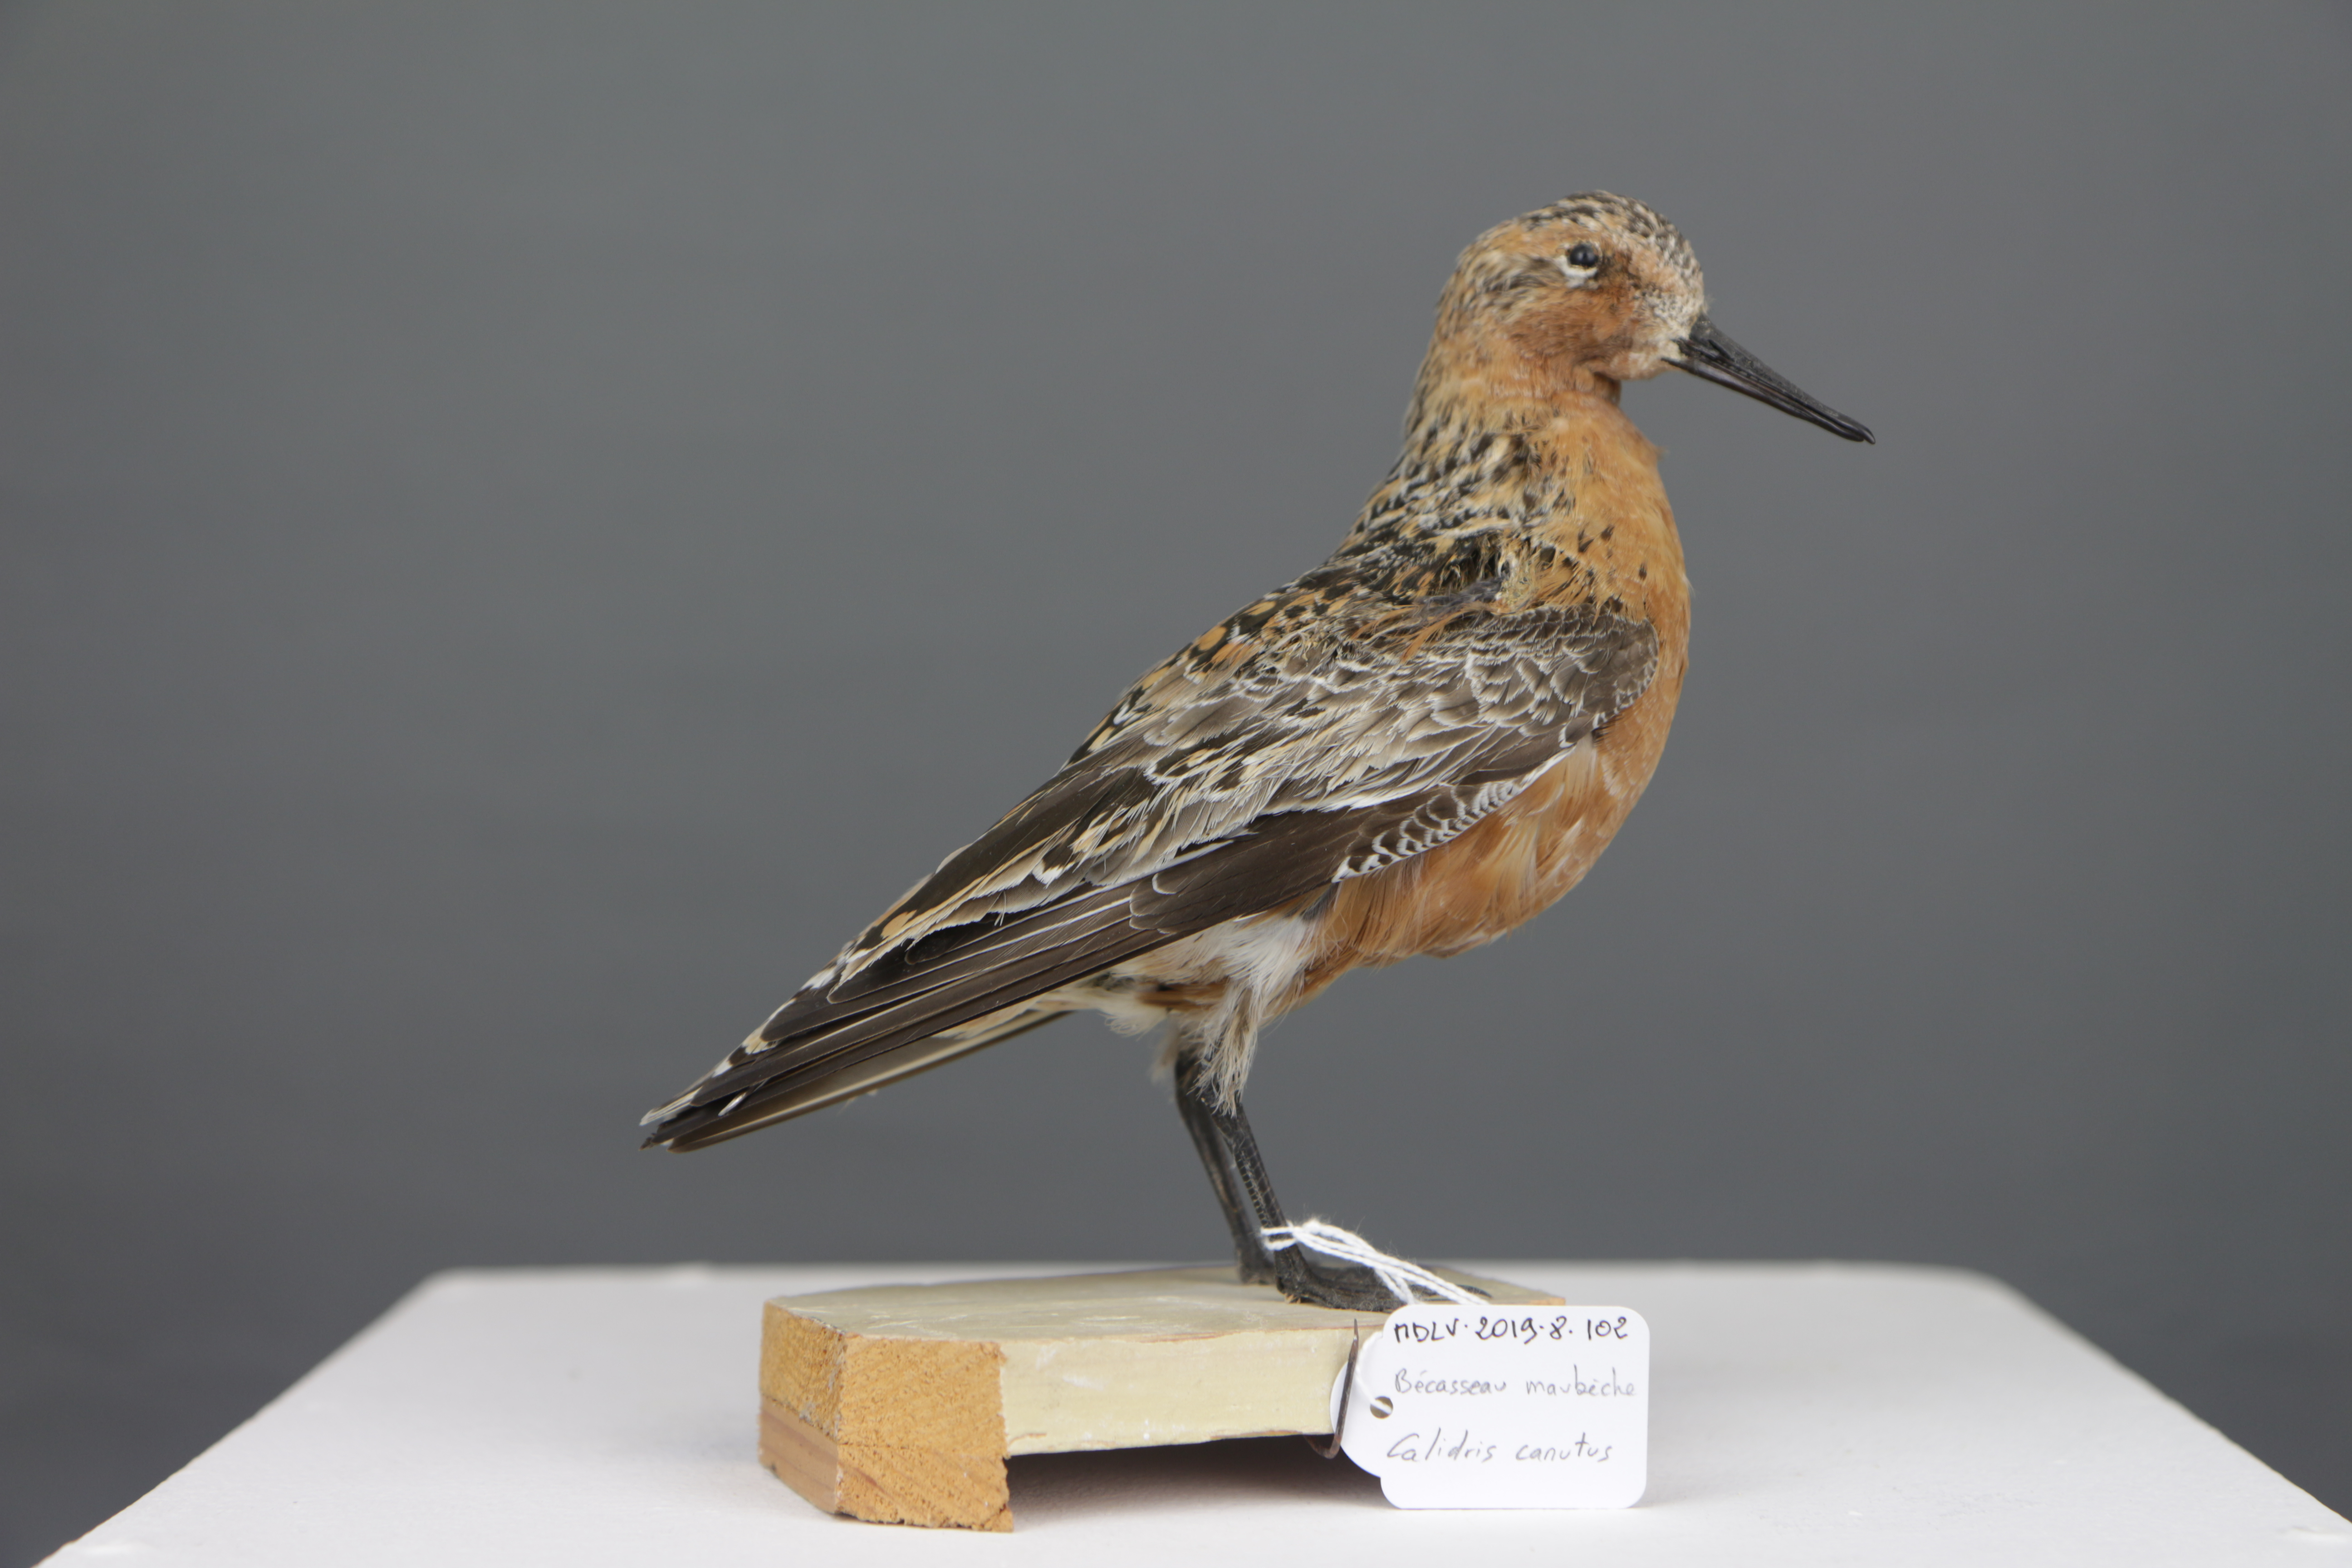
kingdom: Animalia
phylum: Chordata
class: Aves
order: Charadriiformes
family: Scolopacidae
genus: Calidris
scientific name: Calidris canutus
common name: Red knot
